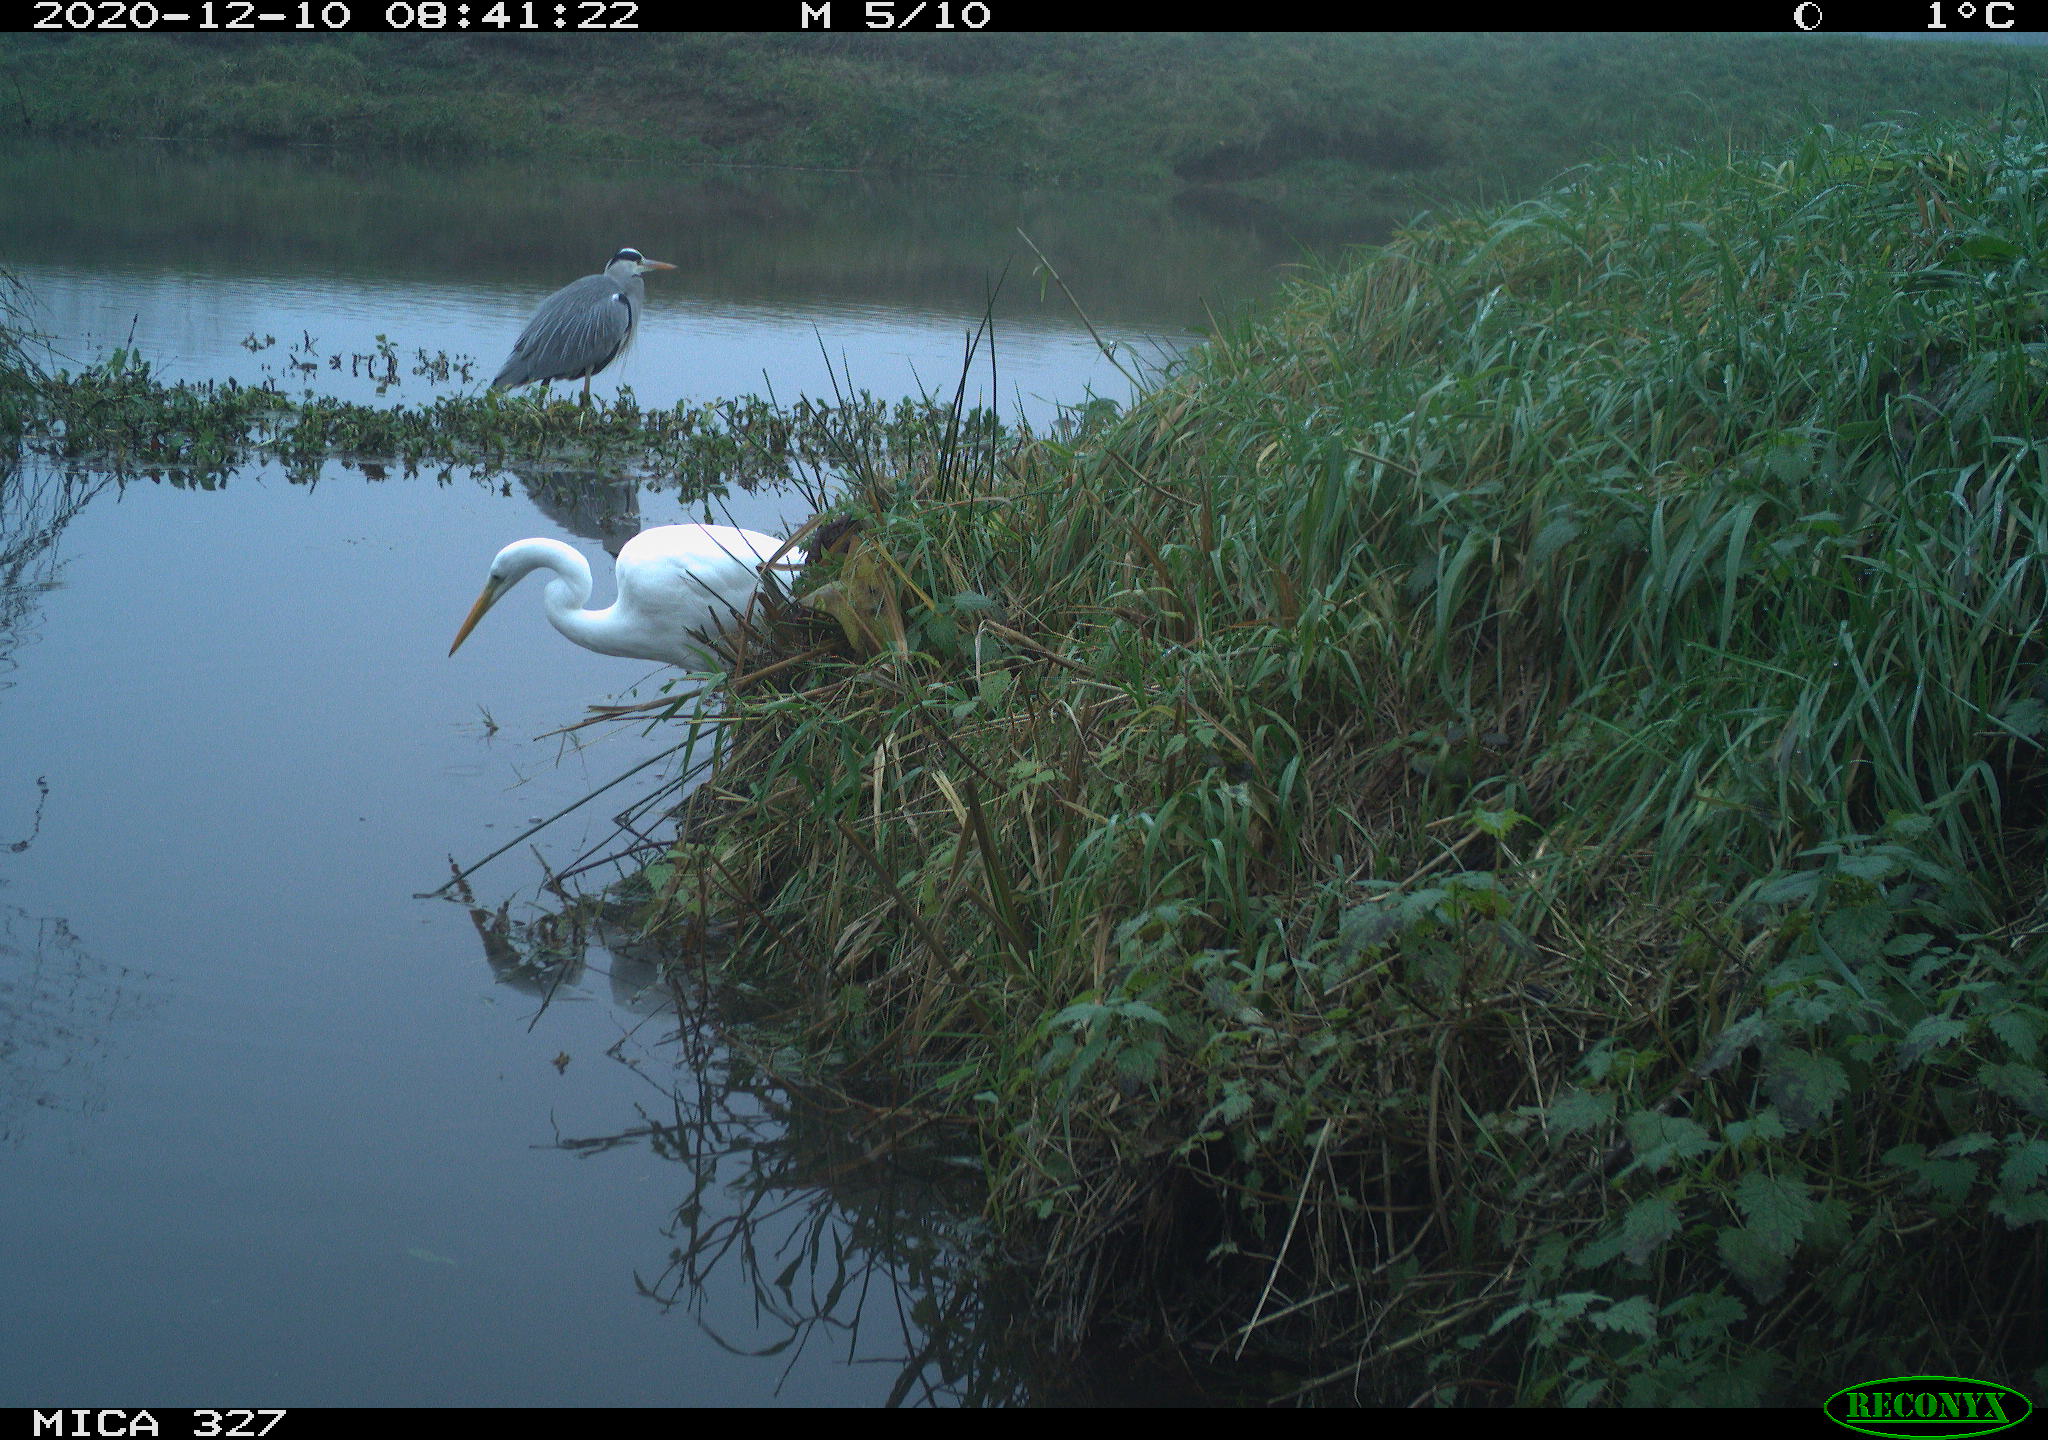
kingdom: Animalia
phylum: Chordata
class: Aves
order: Pelecaniformes
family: Ardeidae
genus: Ardea
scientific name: Ardea alba
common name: Great egret
